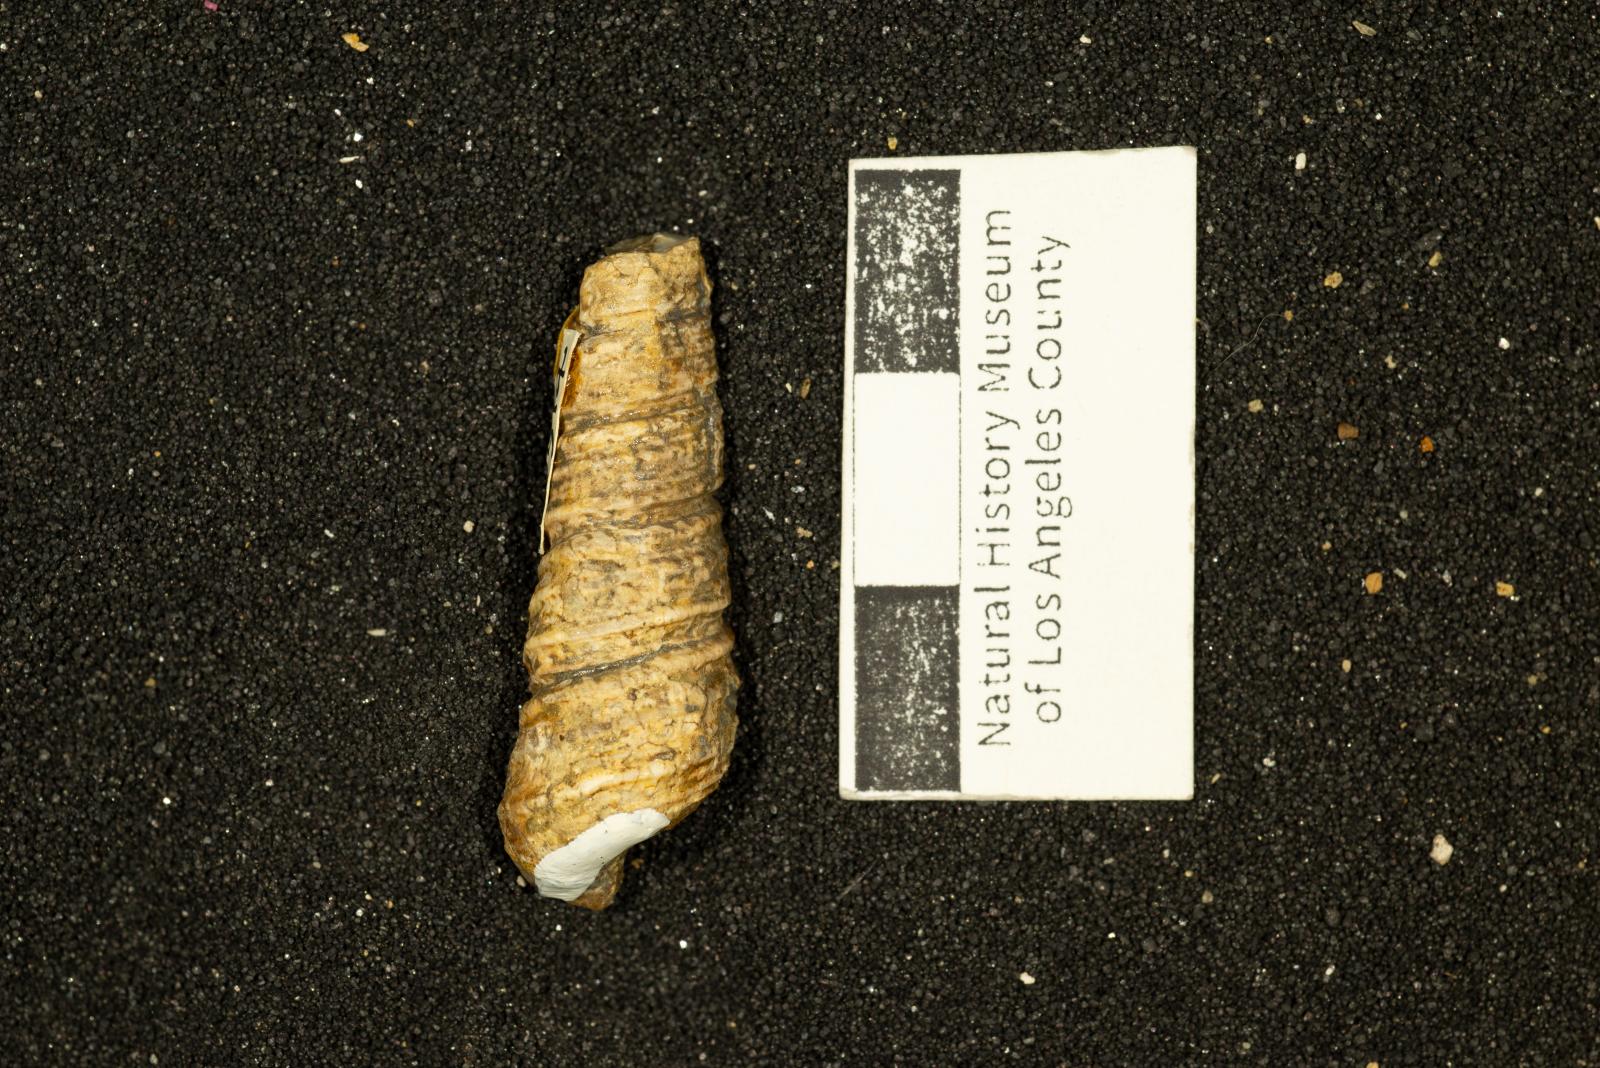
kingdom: Animalia
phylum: Mollusca
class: Gastropoda
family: Turritellidae
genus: Turritella
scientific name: Turritella packardi
